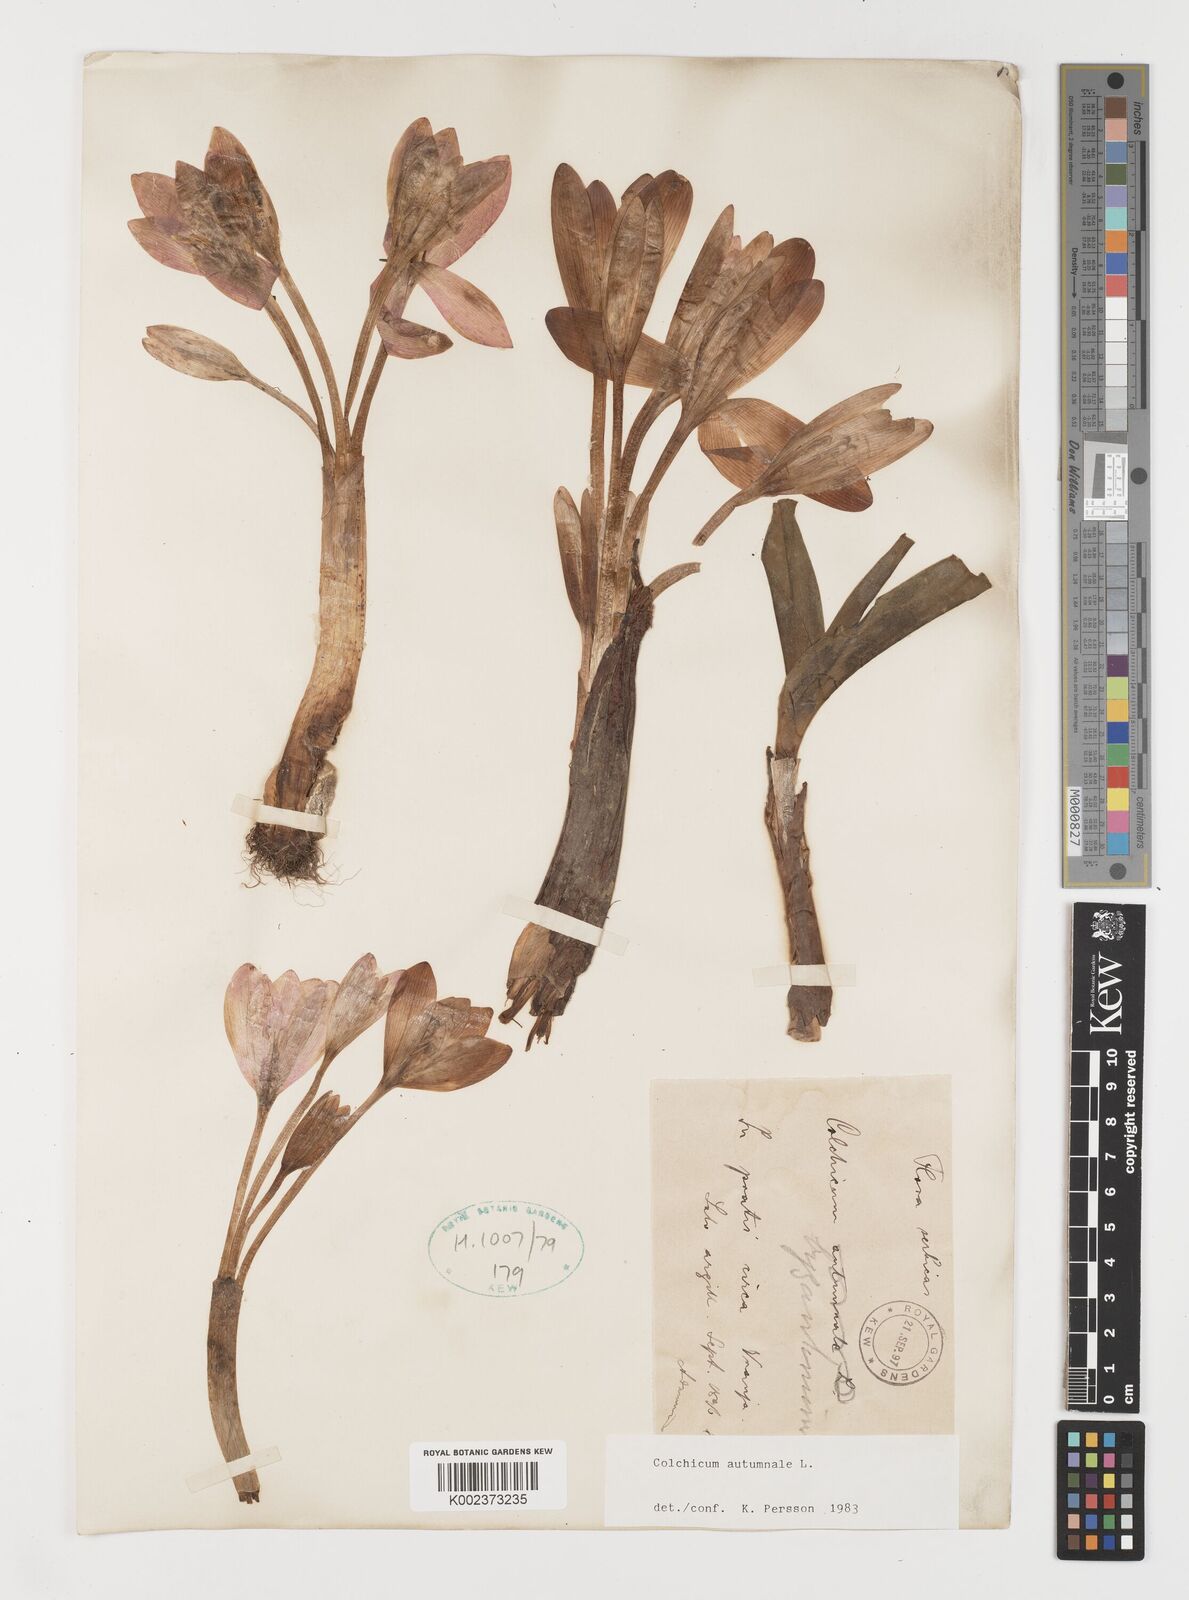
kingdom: Plantae
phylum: Tracheophyta
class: Liliopsida
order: Liliales
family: Colchicaceae
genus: Colchicum
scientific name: Colchicum autumnale
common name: Autumn crocus
